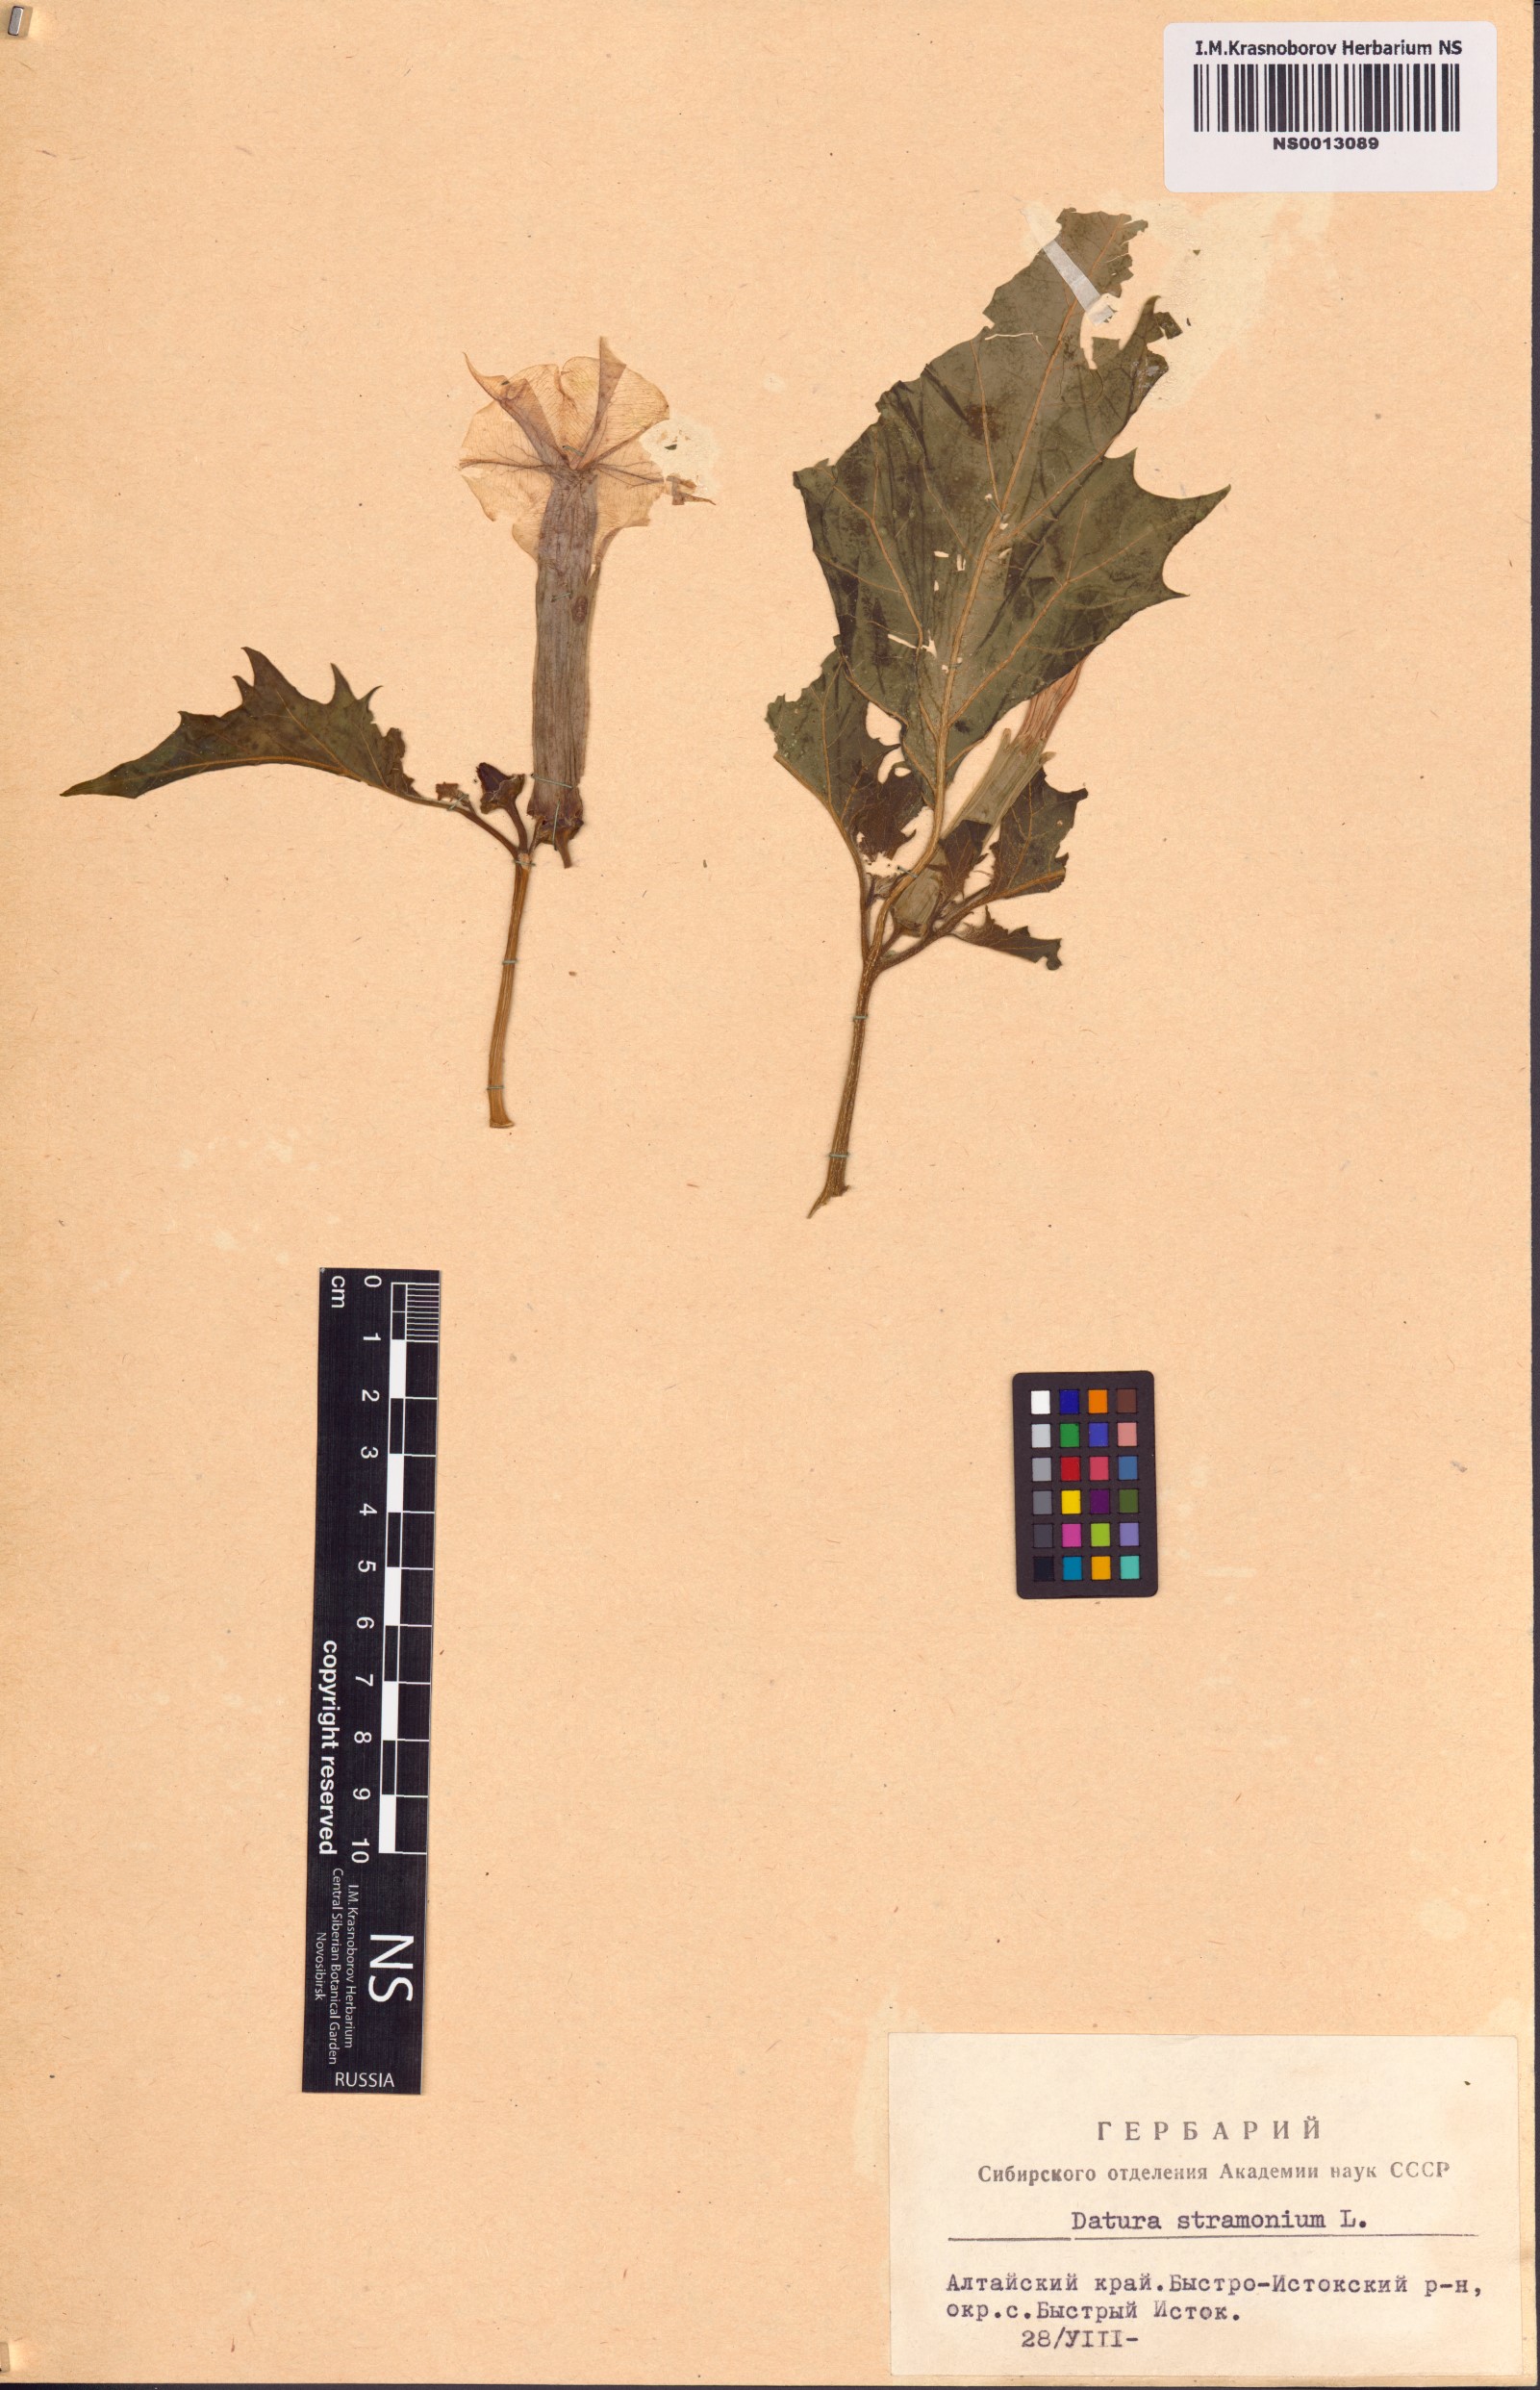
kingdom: Plantae
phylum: Tracheophyta
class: Magnoliopsida
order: Solanales
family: Solanaceae
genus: Datura
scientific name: Datura stramonium
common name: Thorn-apple
